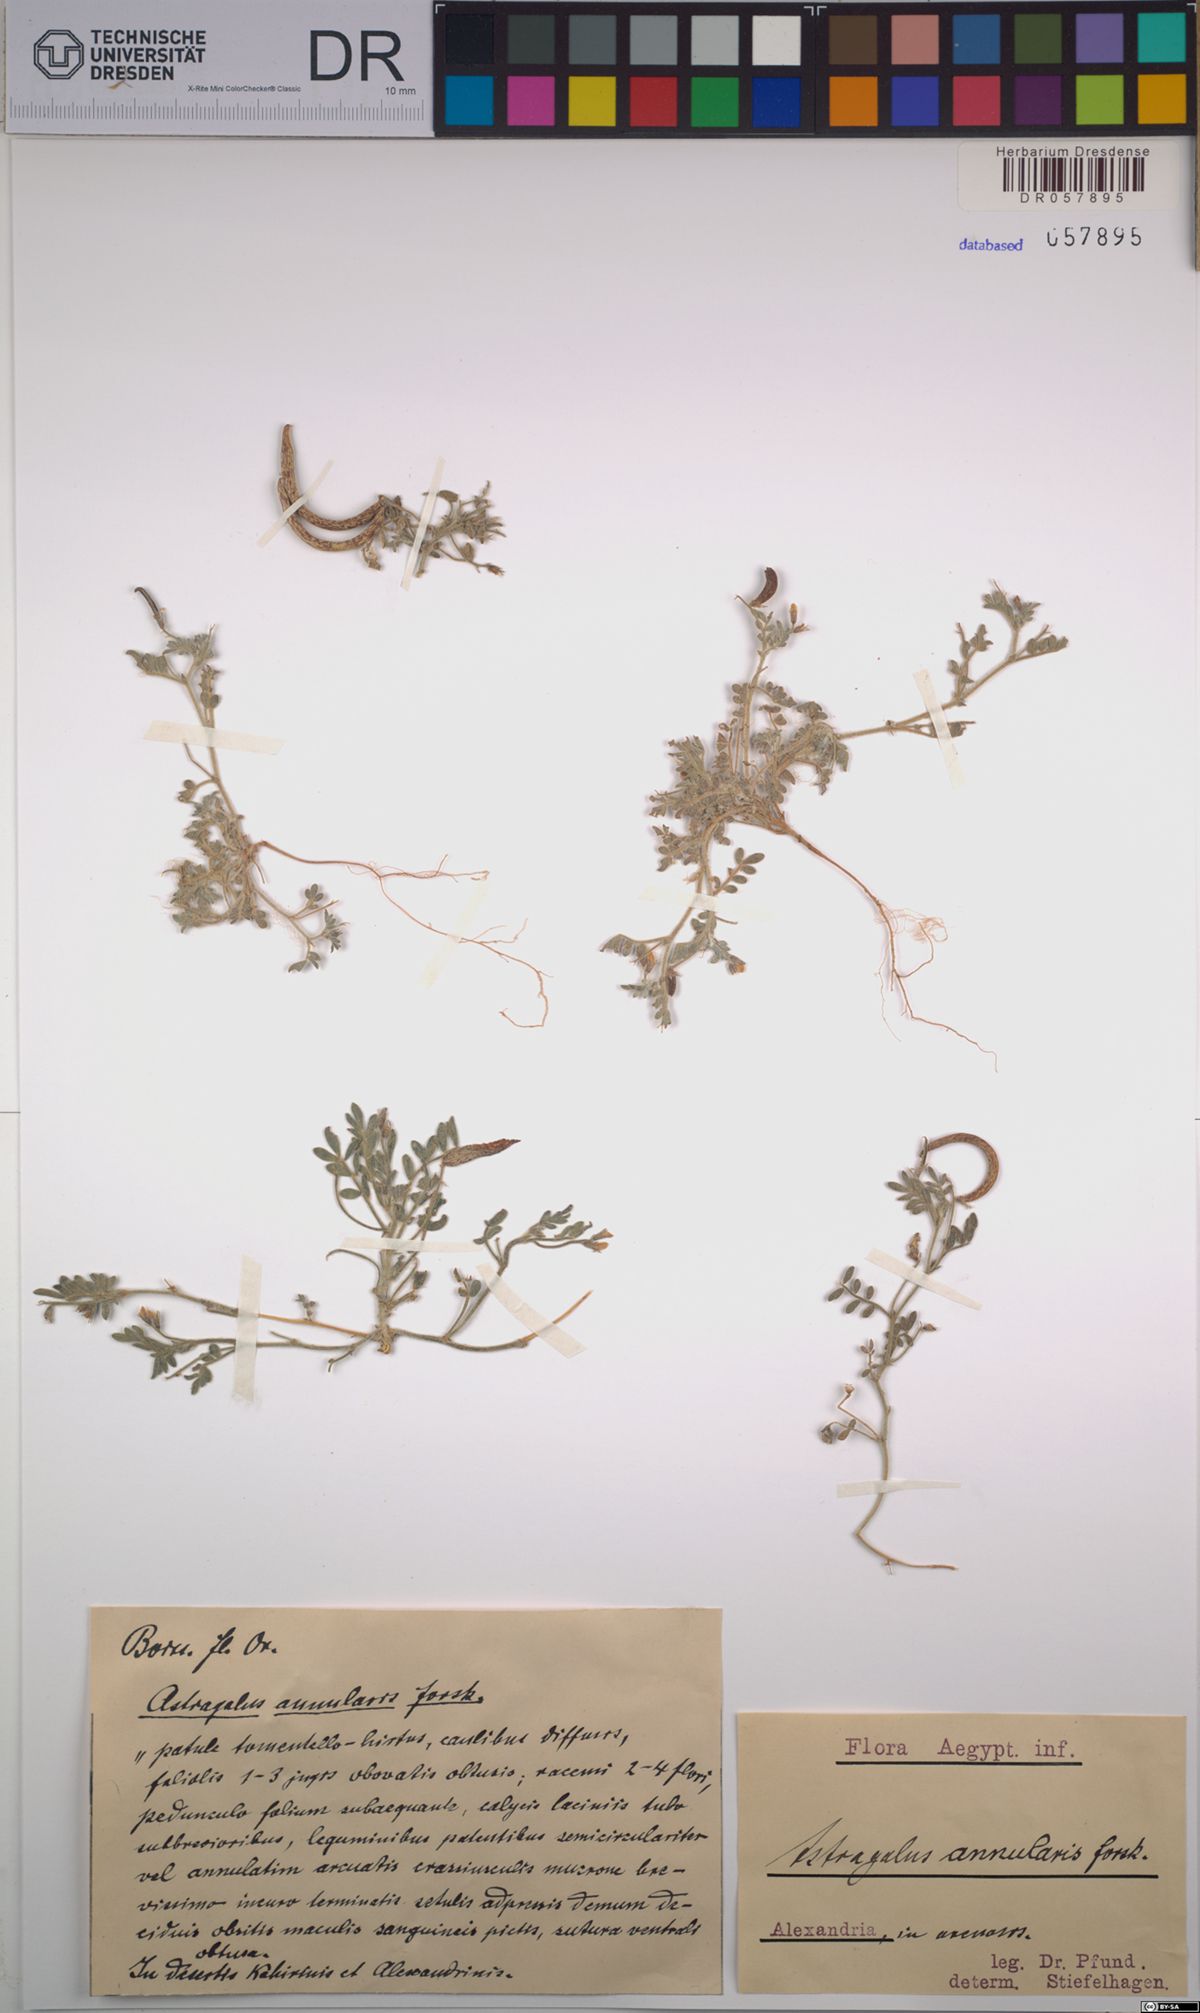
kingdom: Plantae
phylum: Tracheophyta
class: Magnoliopsida
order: Fabales
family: Fabaceae
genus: Astragalus
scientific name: Astragalus annularis
